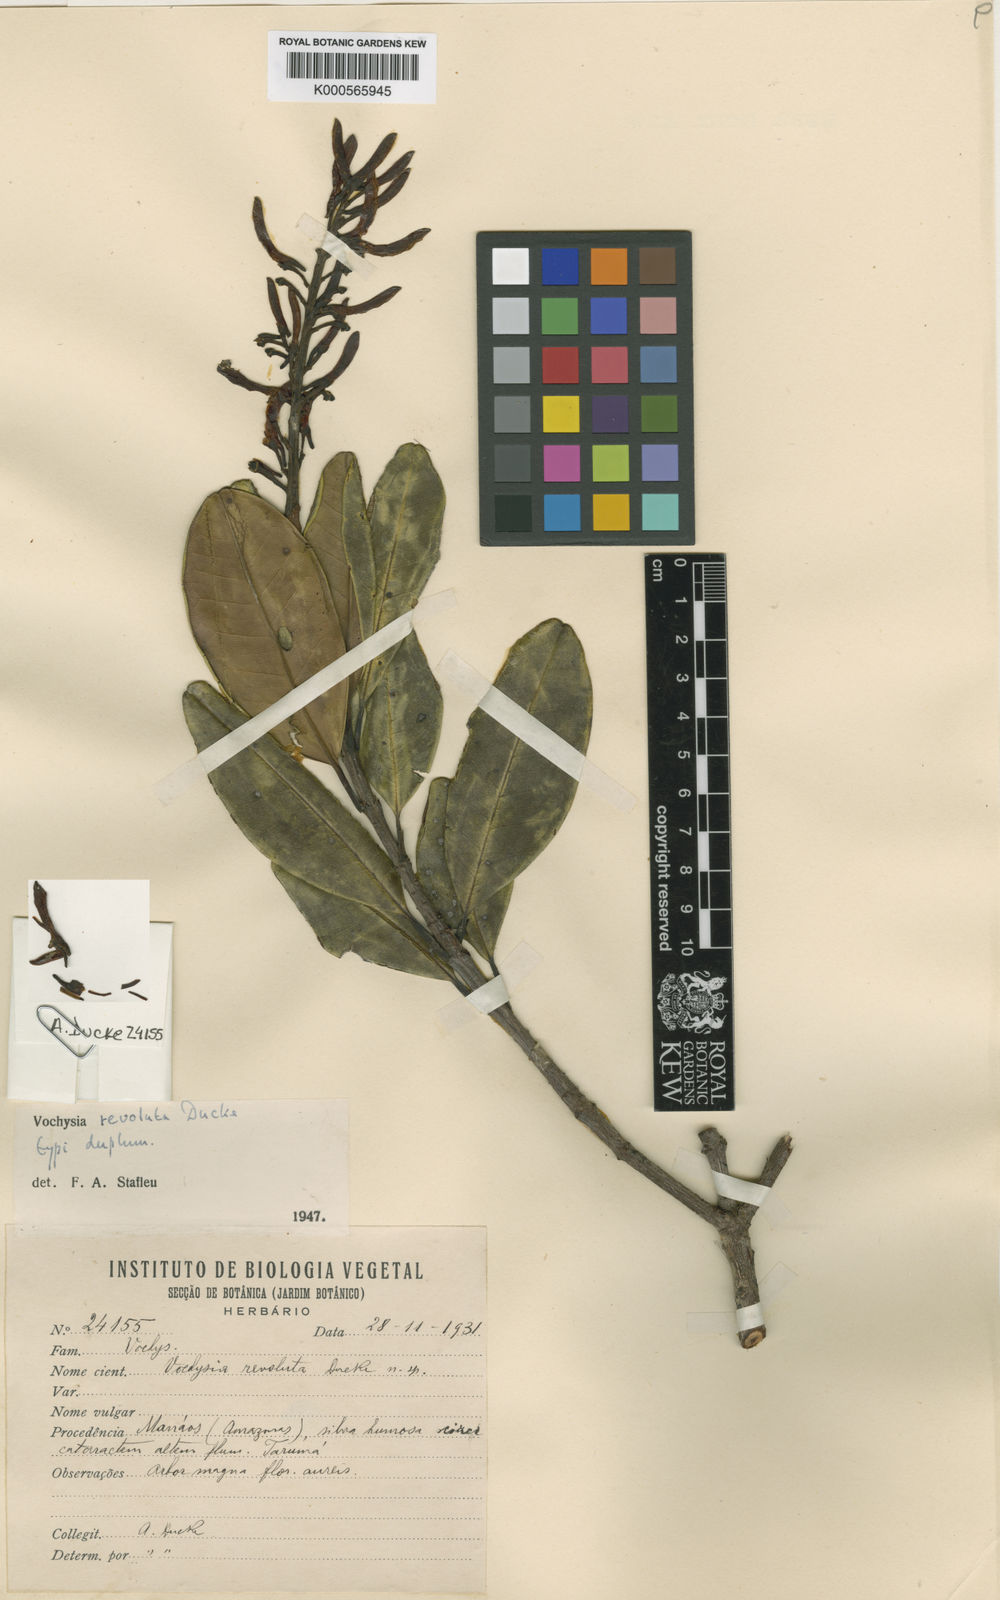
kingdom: Plantae
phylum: Tracheophyta
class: Magnoliopsida
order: Myrtales
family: Vochysiaceae
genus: Vochysia
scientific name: Vochysia revoluta
